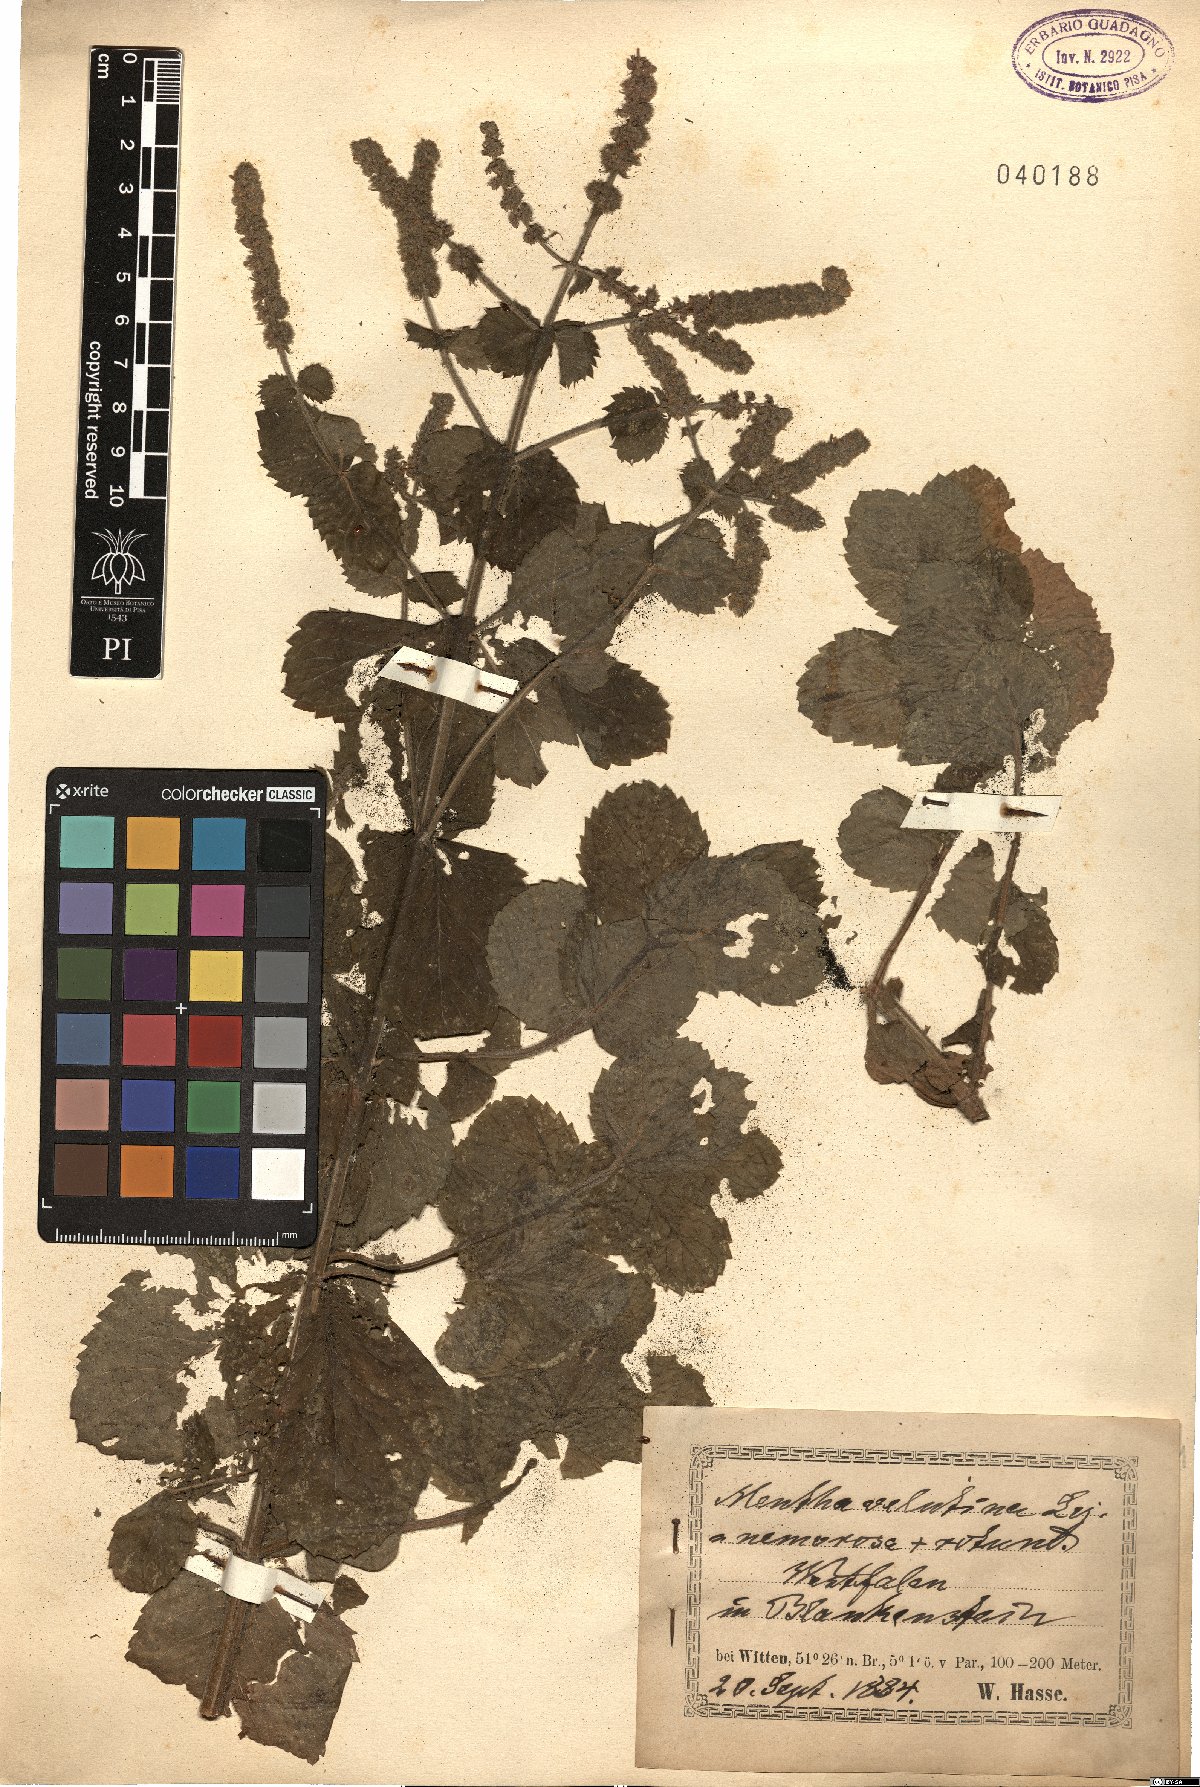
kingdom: Plantae
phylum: Tracheophyta
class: Magnoliopsida
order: Lamiales
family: Lamiaceae
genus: Mentha
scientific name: Mentha villosa
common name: Apple mint
